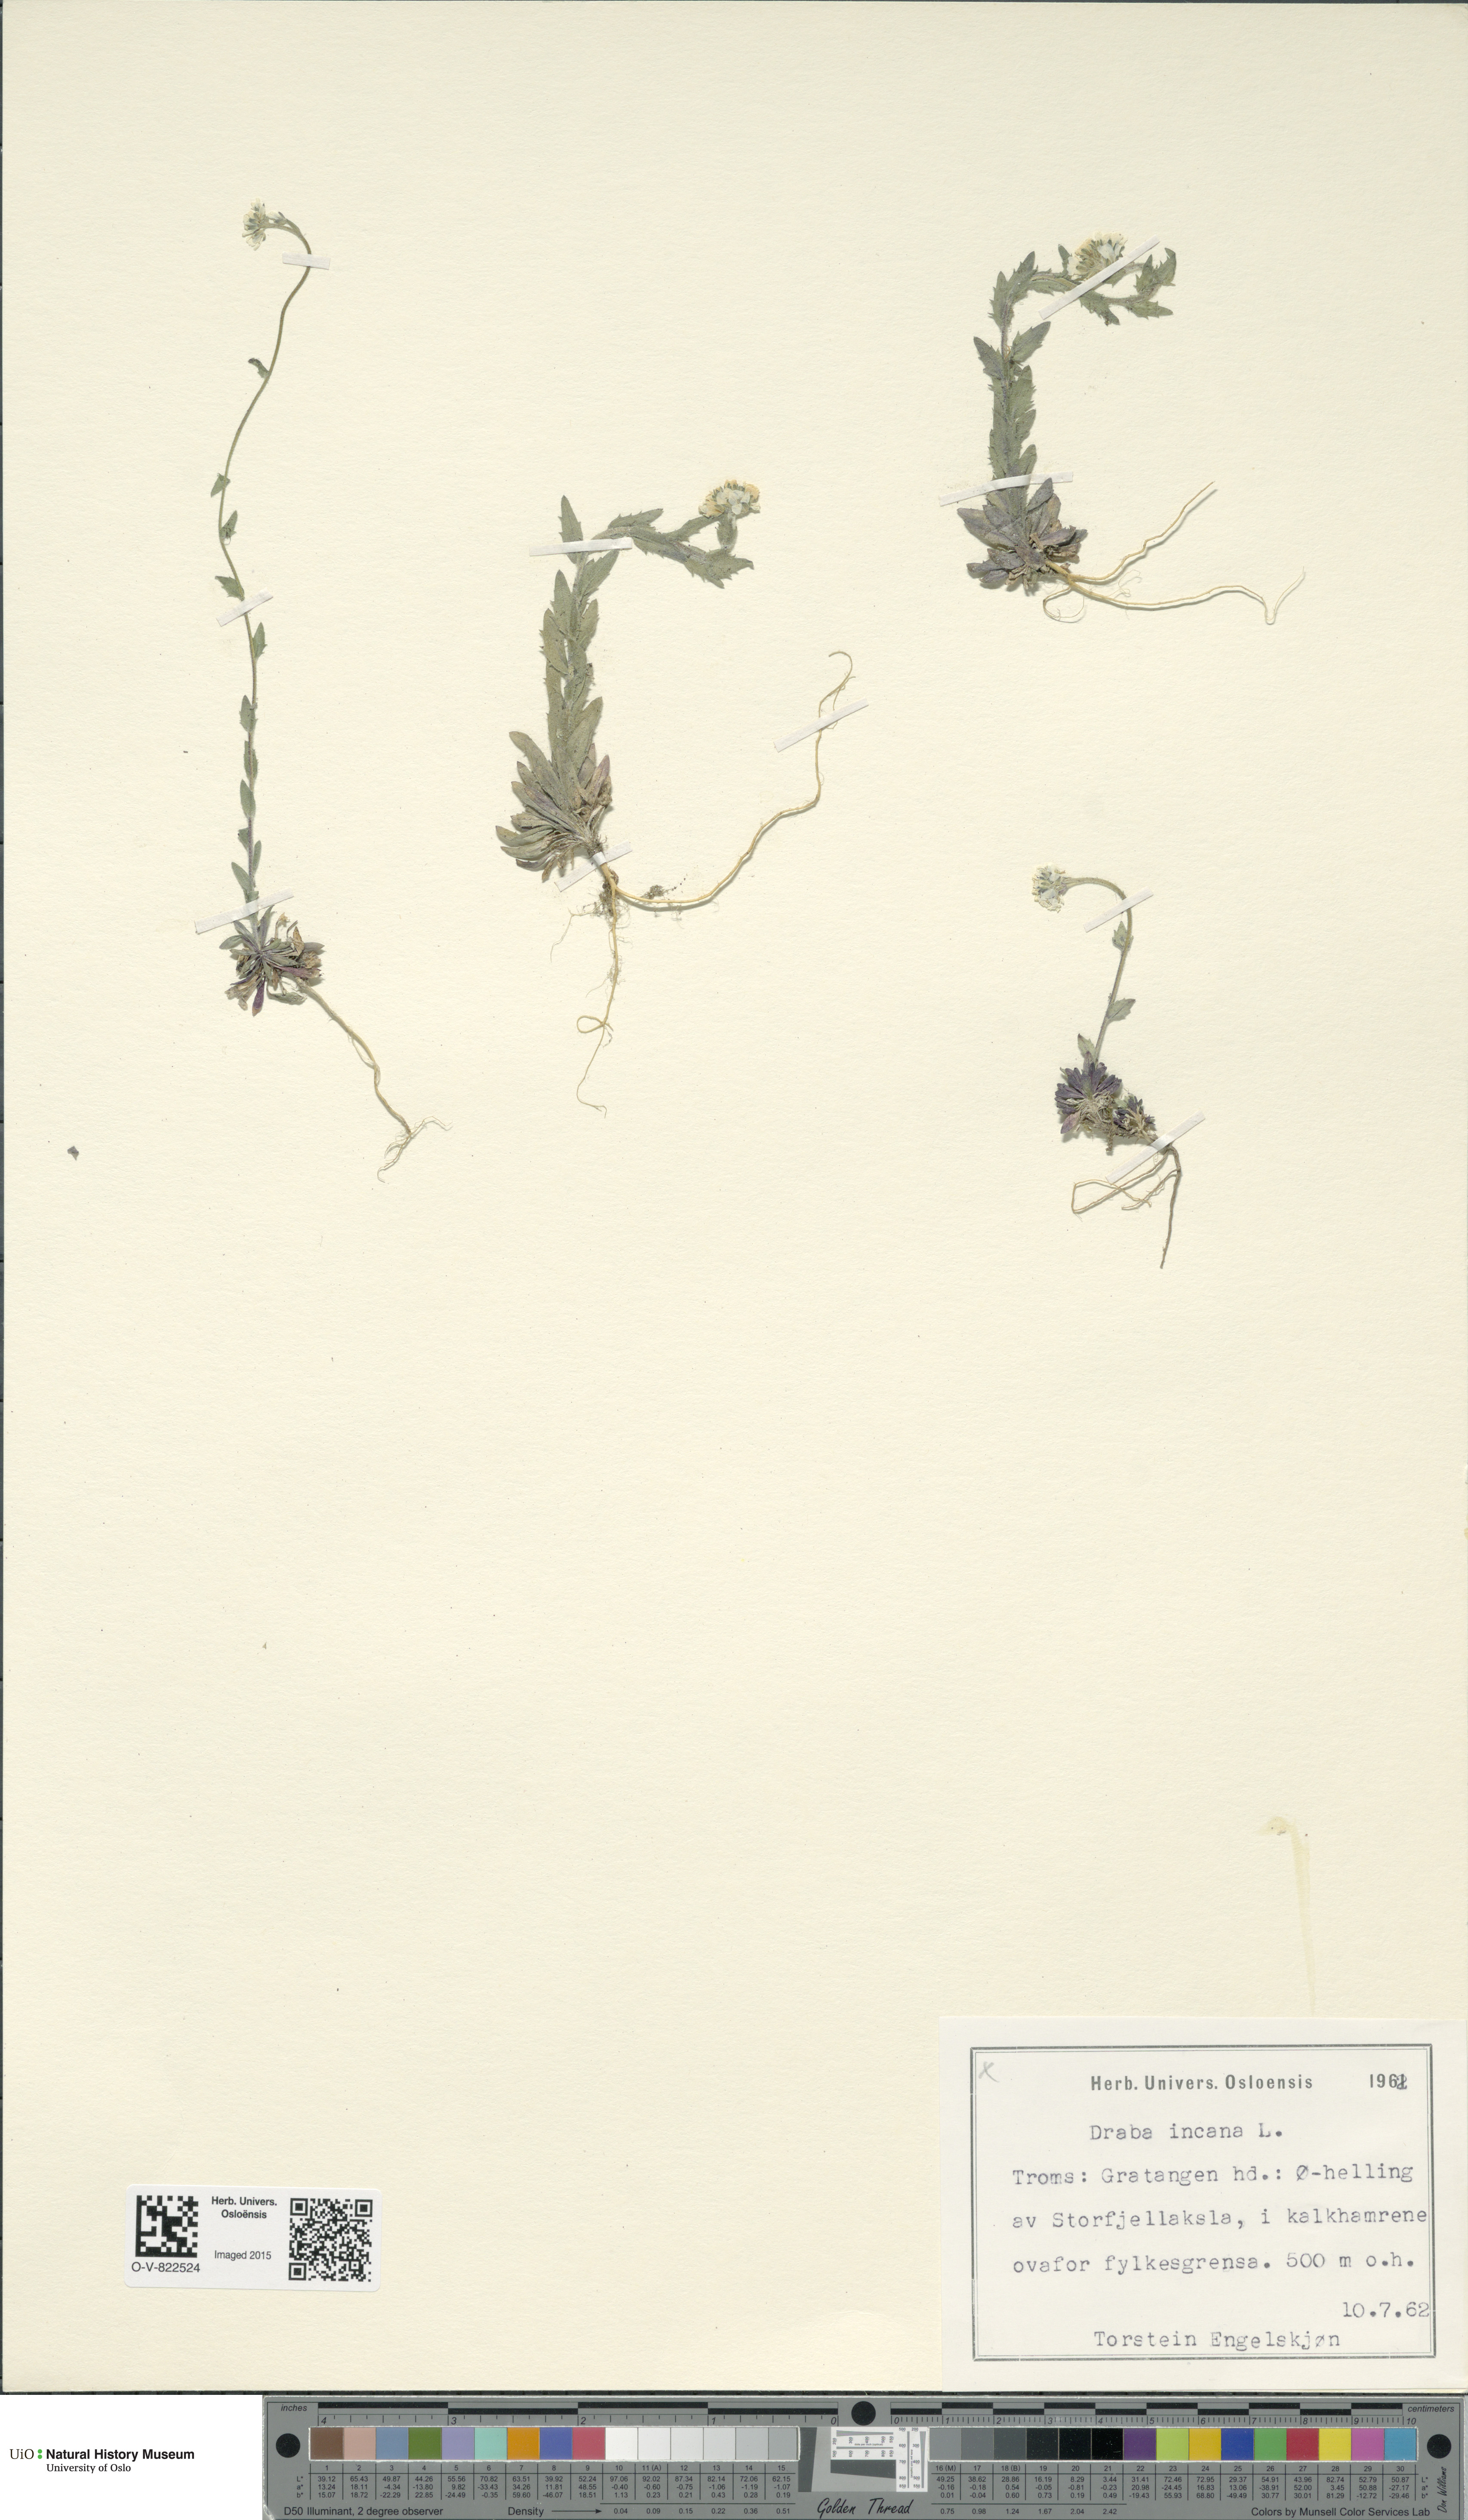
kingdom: Plantae
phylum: Tracheophyta
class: Magnoliopsida
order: Brassicales
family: Brassicaceae
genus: Draba
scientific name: Draba incana
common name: Hoary whitlow-grass
